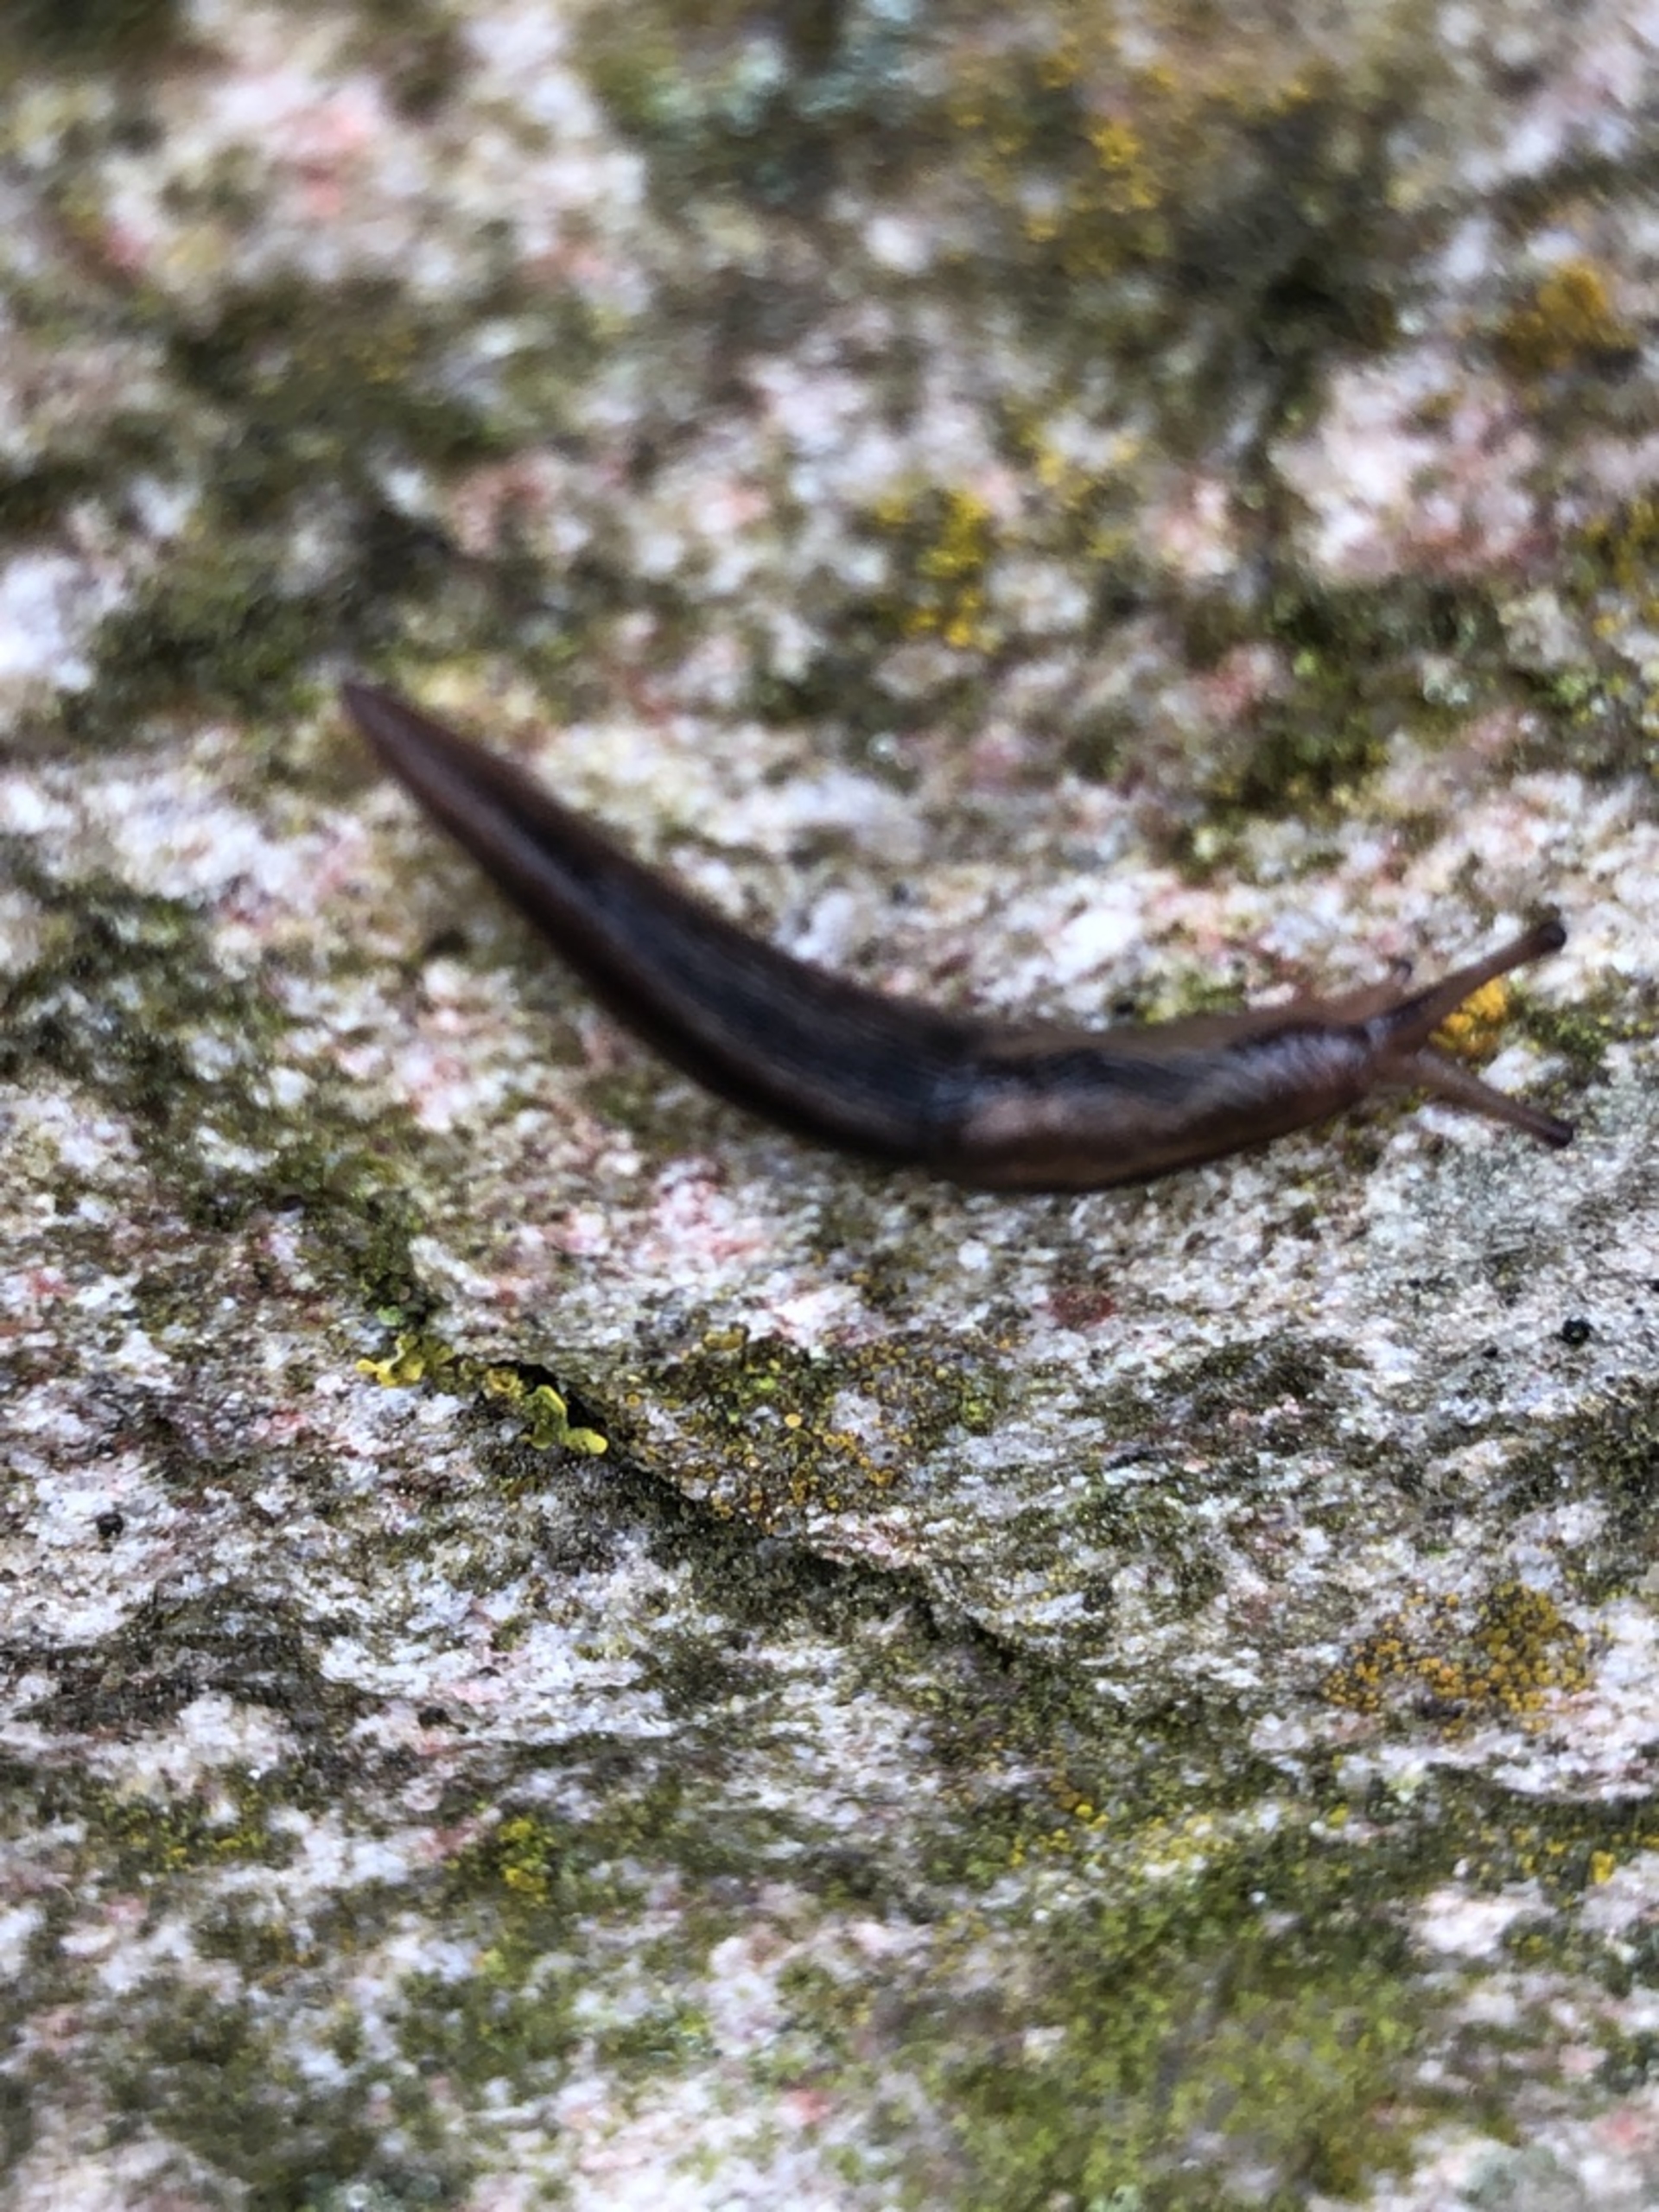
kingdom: Animalia
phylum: Mollusca
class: Gastropoda
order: Stylommatophora
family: Limacidae
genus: Limax
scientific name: Limax maximus
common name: Pantersnegl
